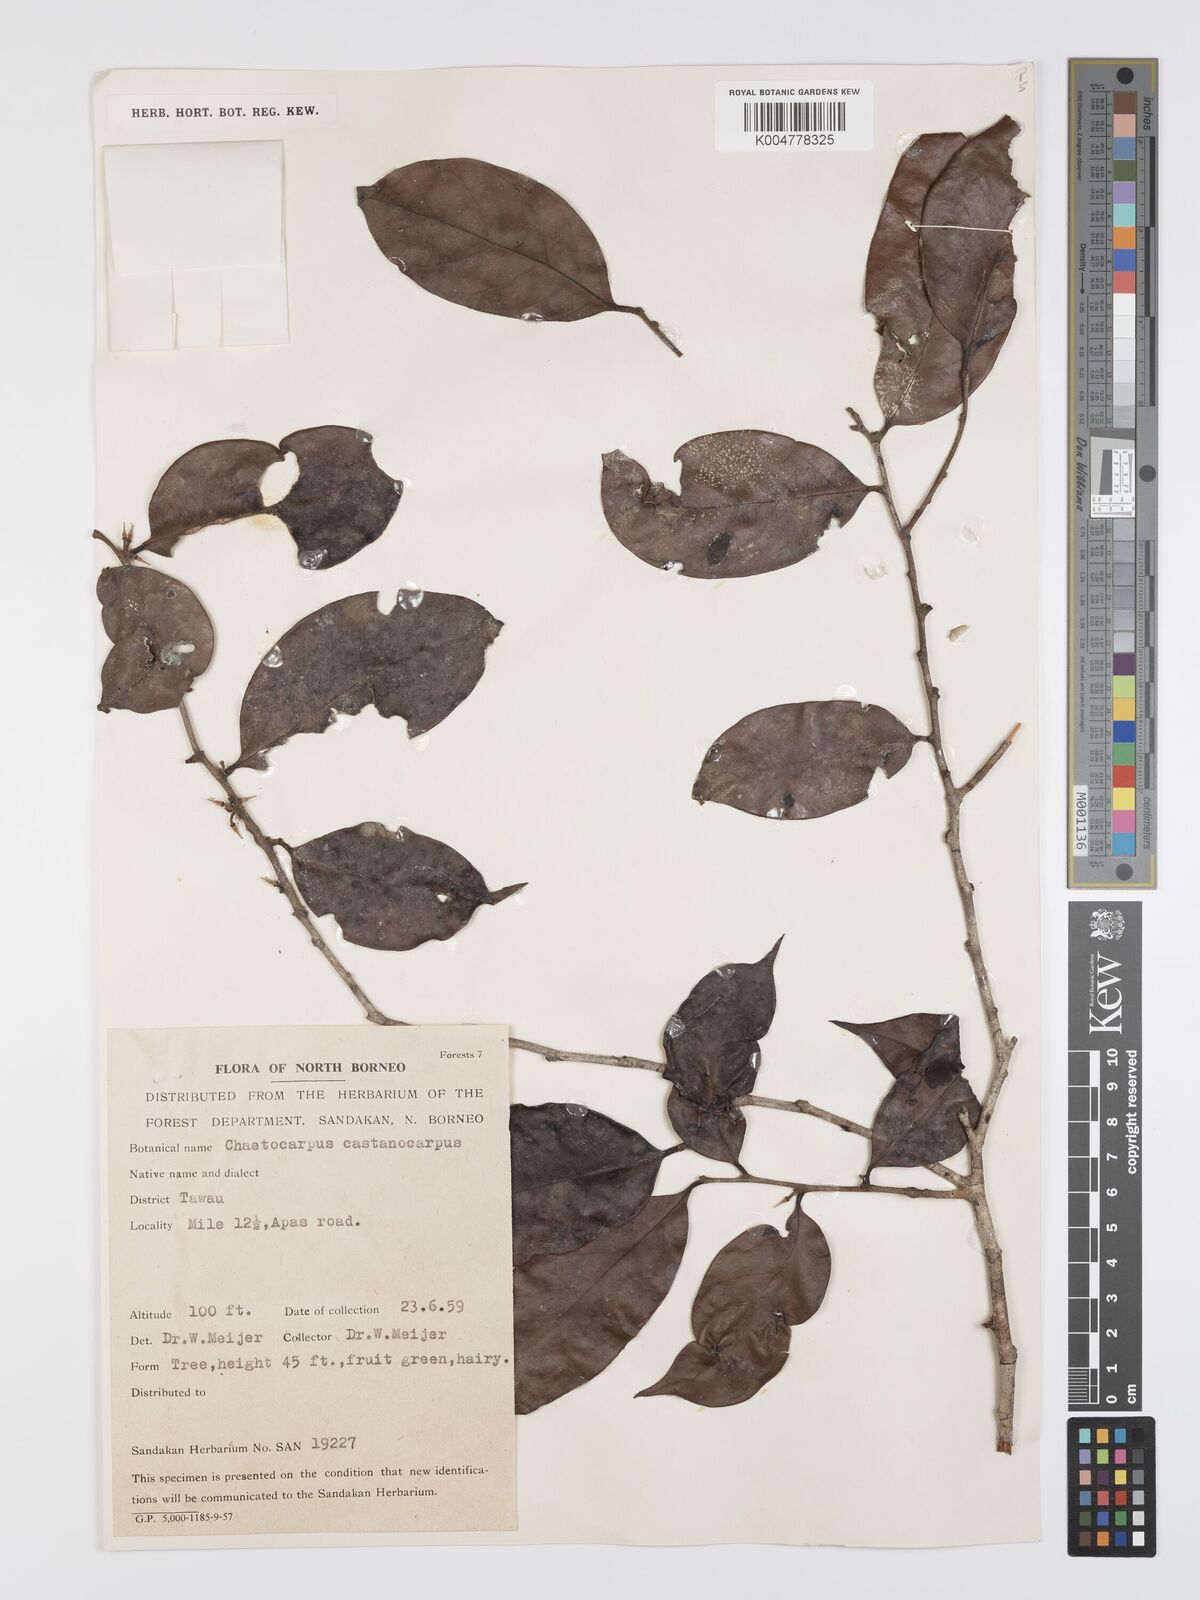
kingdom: Plantae
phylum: Tracheophyta
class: Magnoliopsida
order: Malpighiales
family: Peraceae
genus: Chaetocarpus
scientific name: Chaetocarpus castanocarpus
